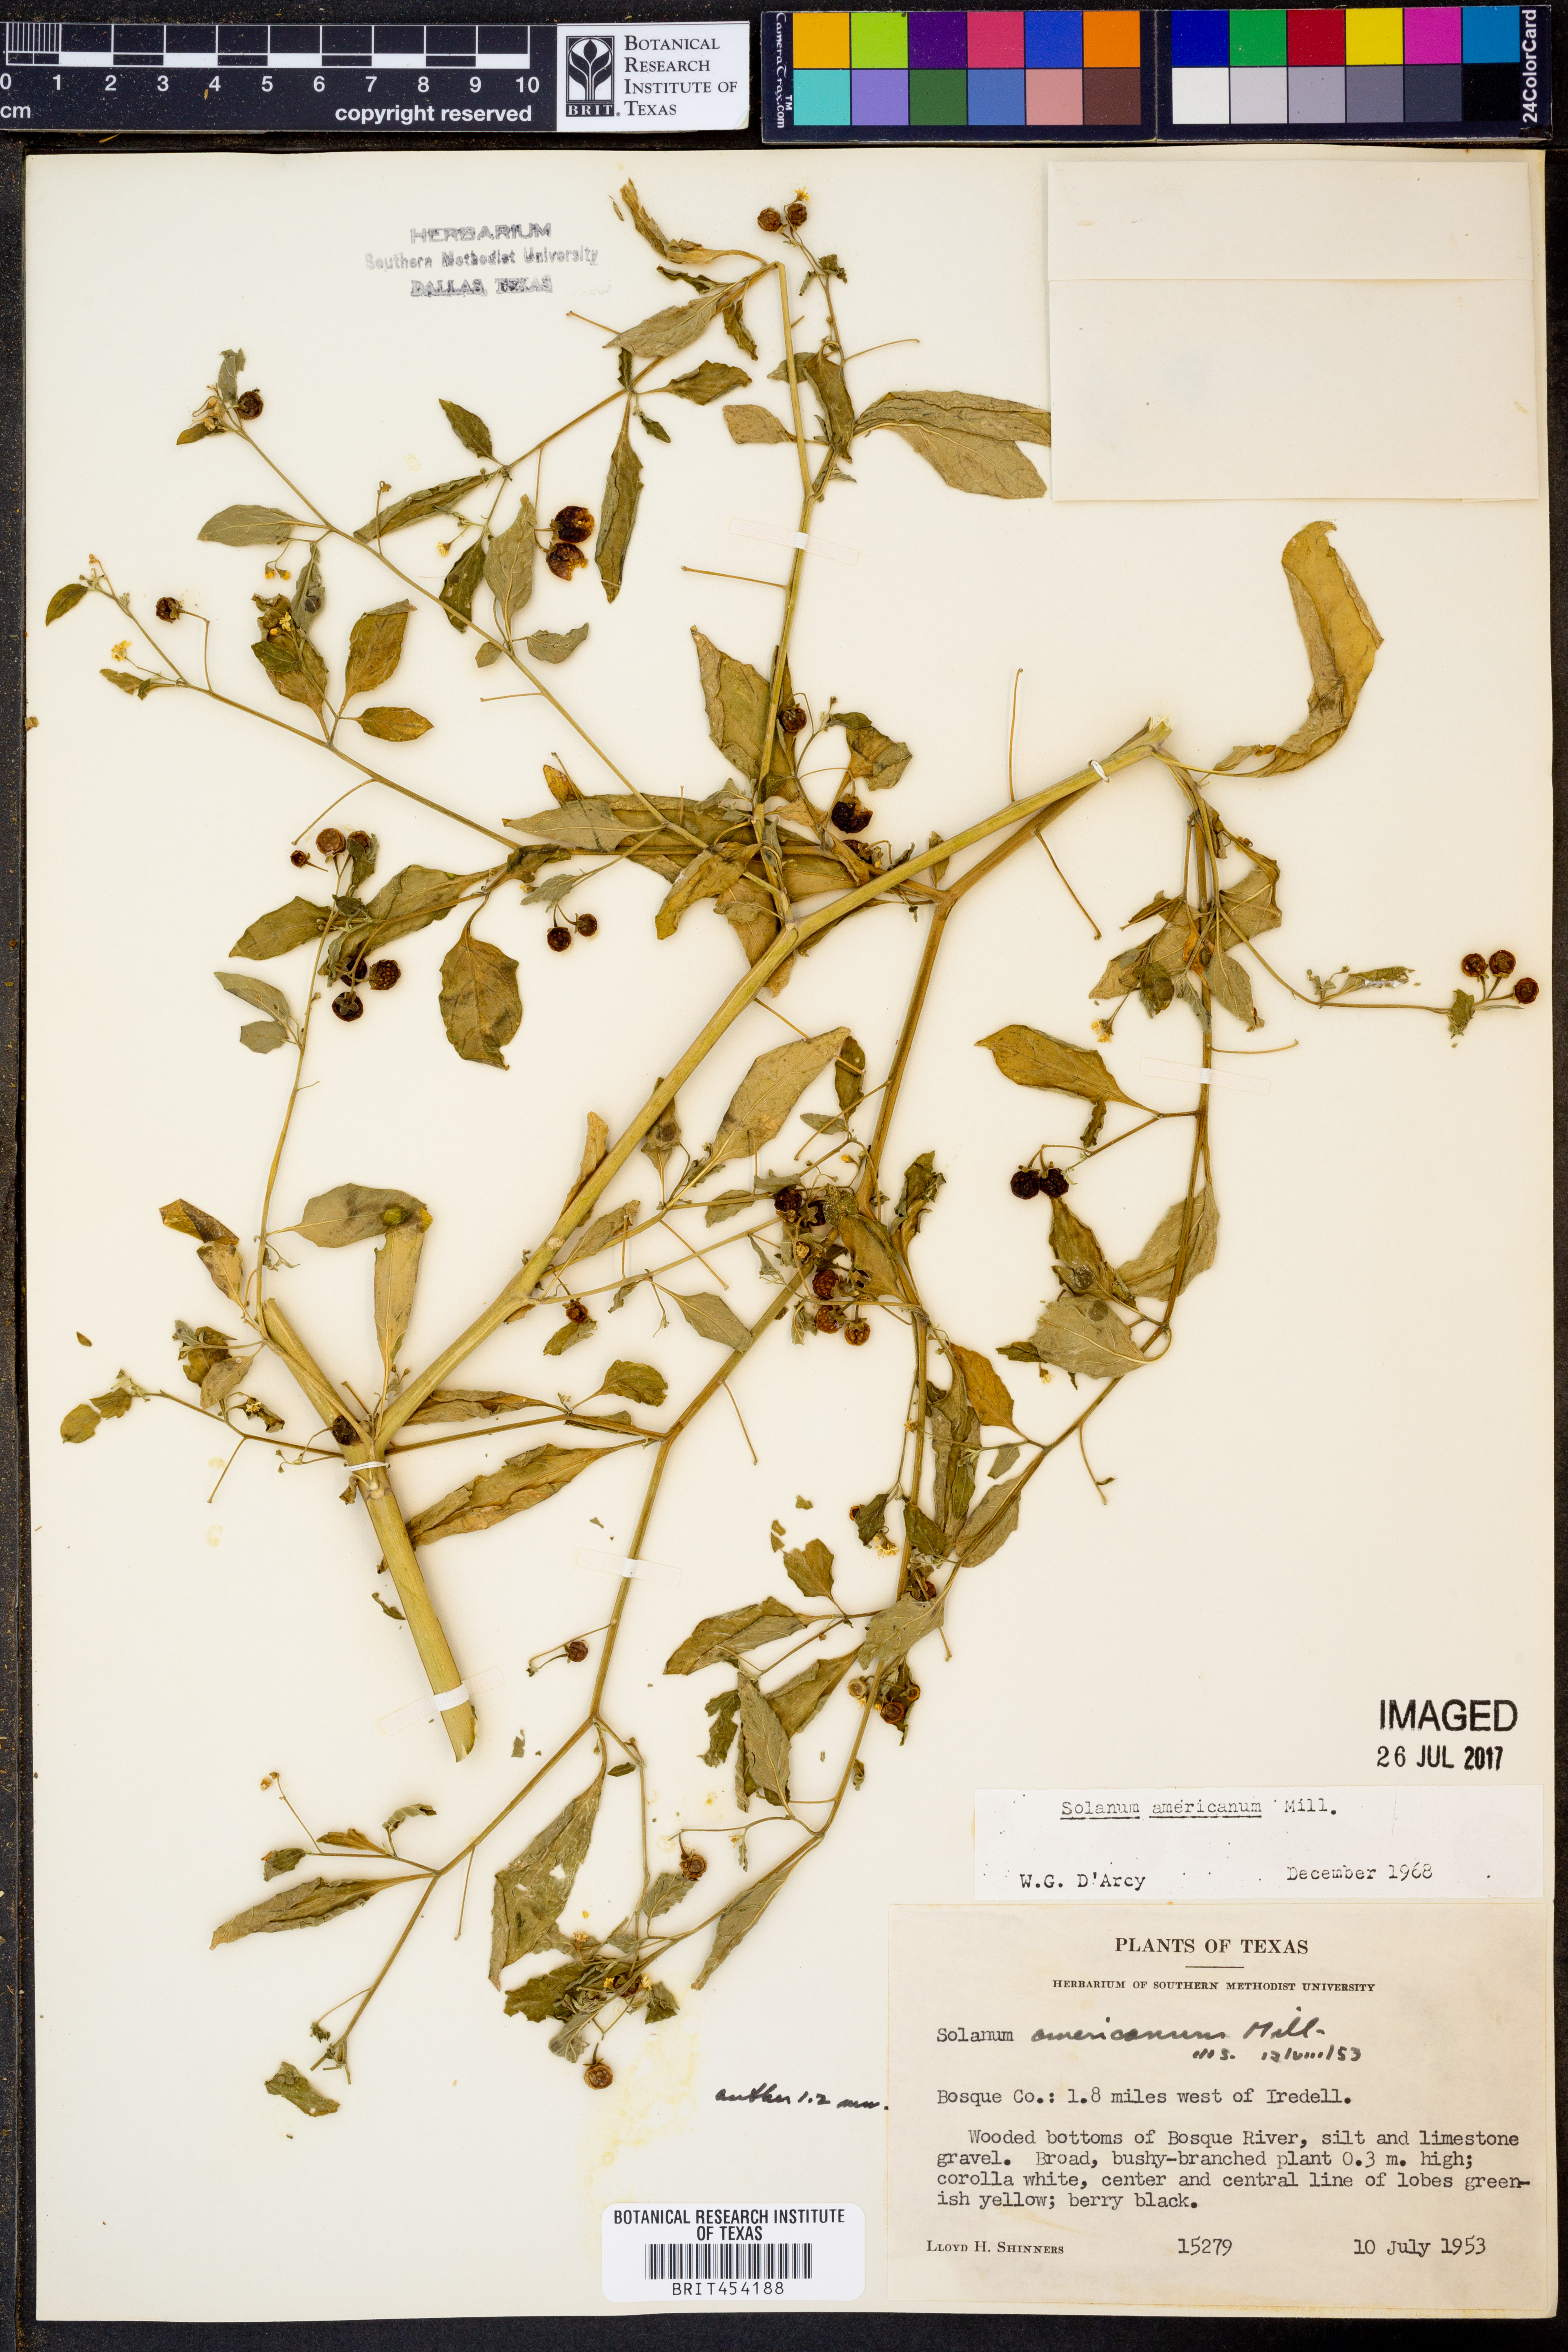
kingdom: Plantae
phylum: Tracheophyta
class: Magnoliopsida
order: Solanales
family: Solanaceae
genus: Solanum
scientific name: Solanum americanum
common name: American black nightshade
